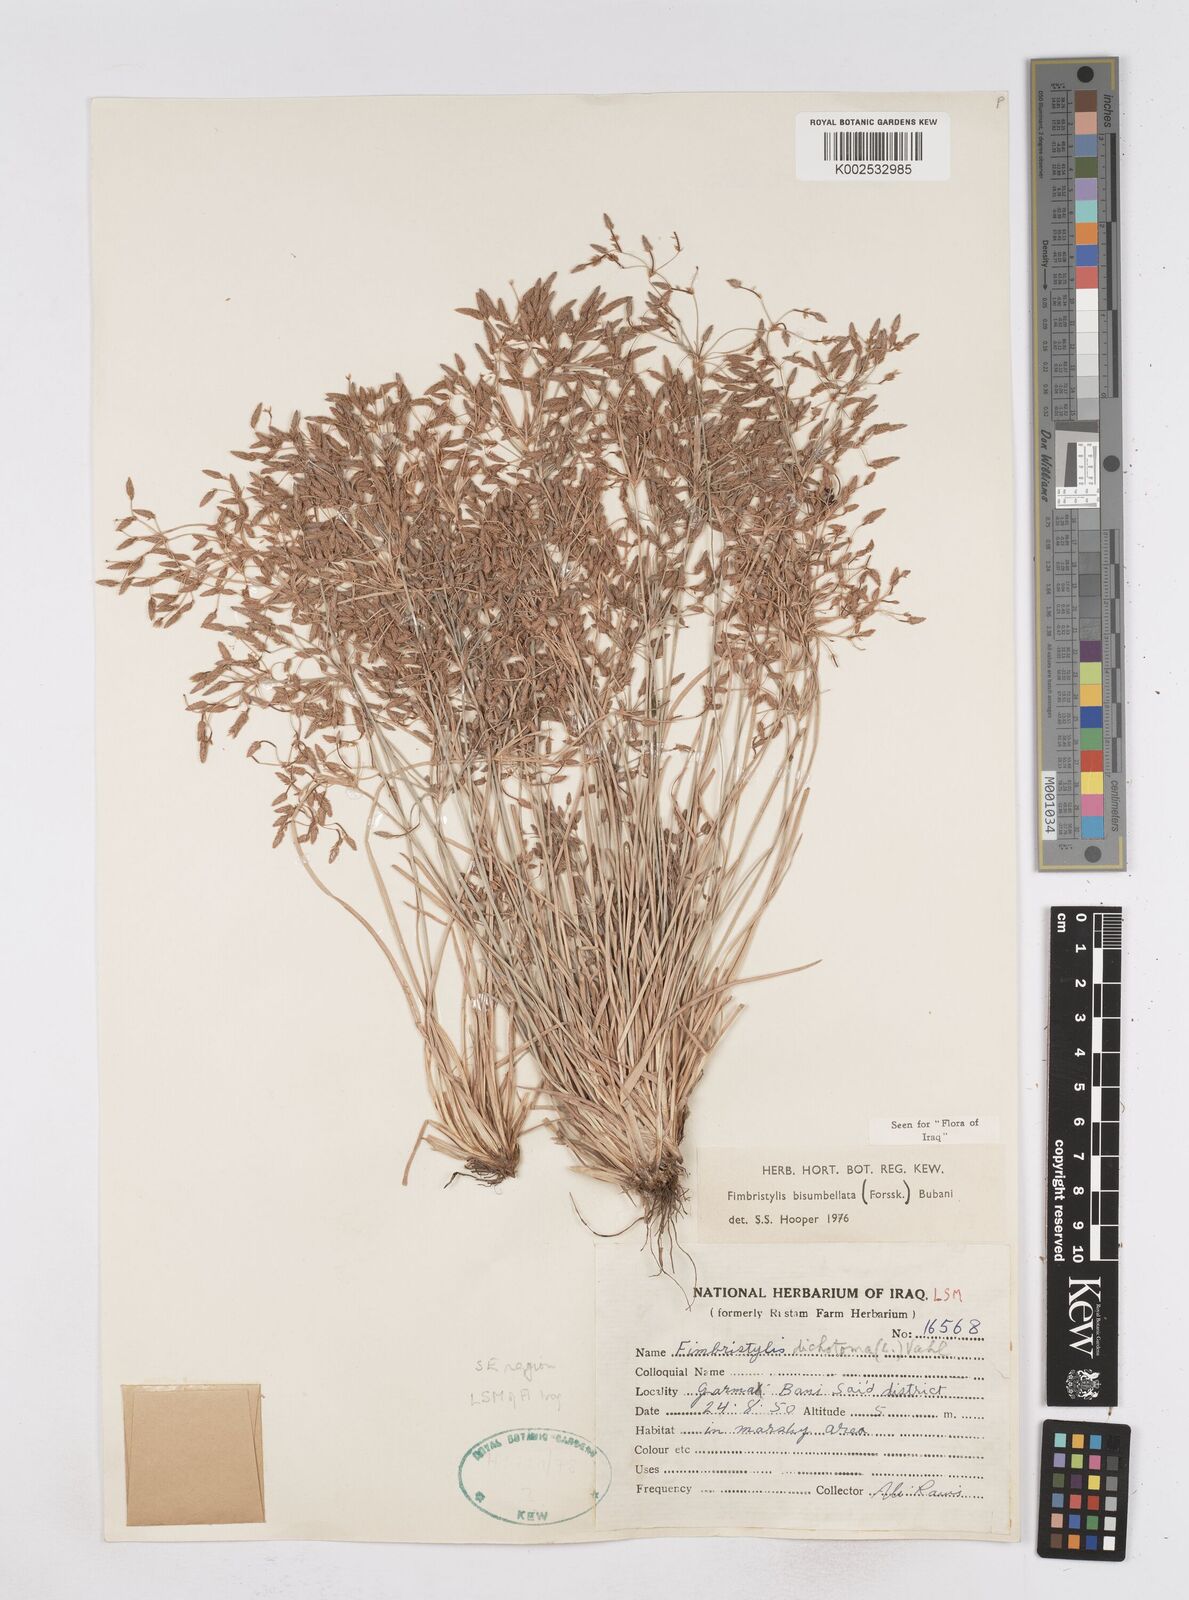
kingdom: Plantae
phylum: Tracheophyta
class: Liliopsida
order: Poales
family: Cyperaceae
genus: Fimbristylis
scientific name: Fimbristylis bisumbellata
